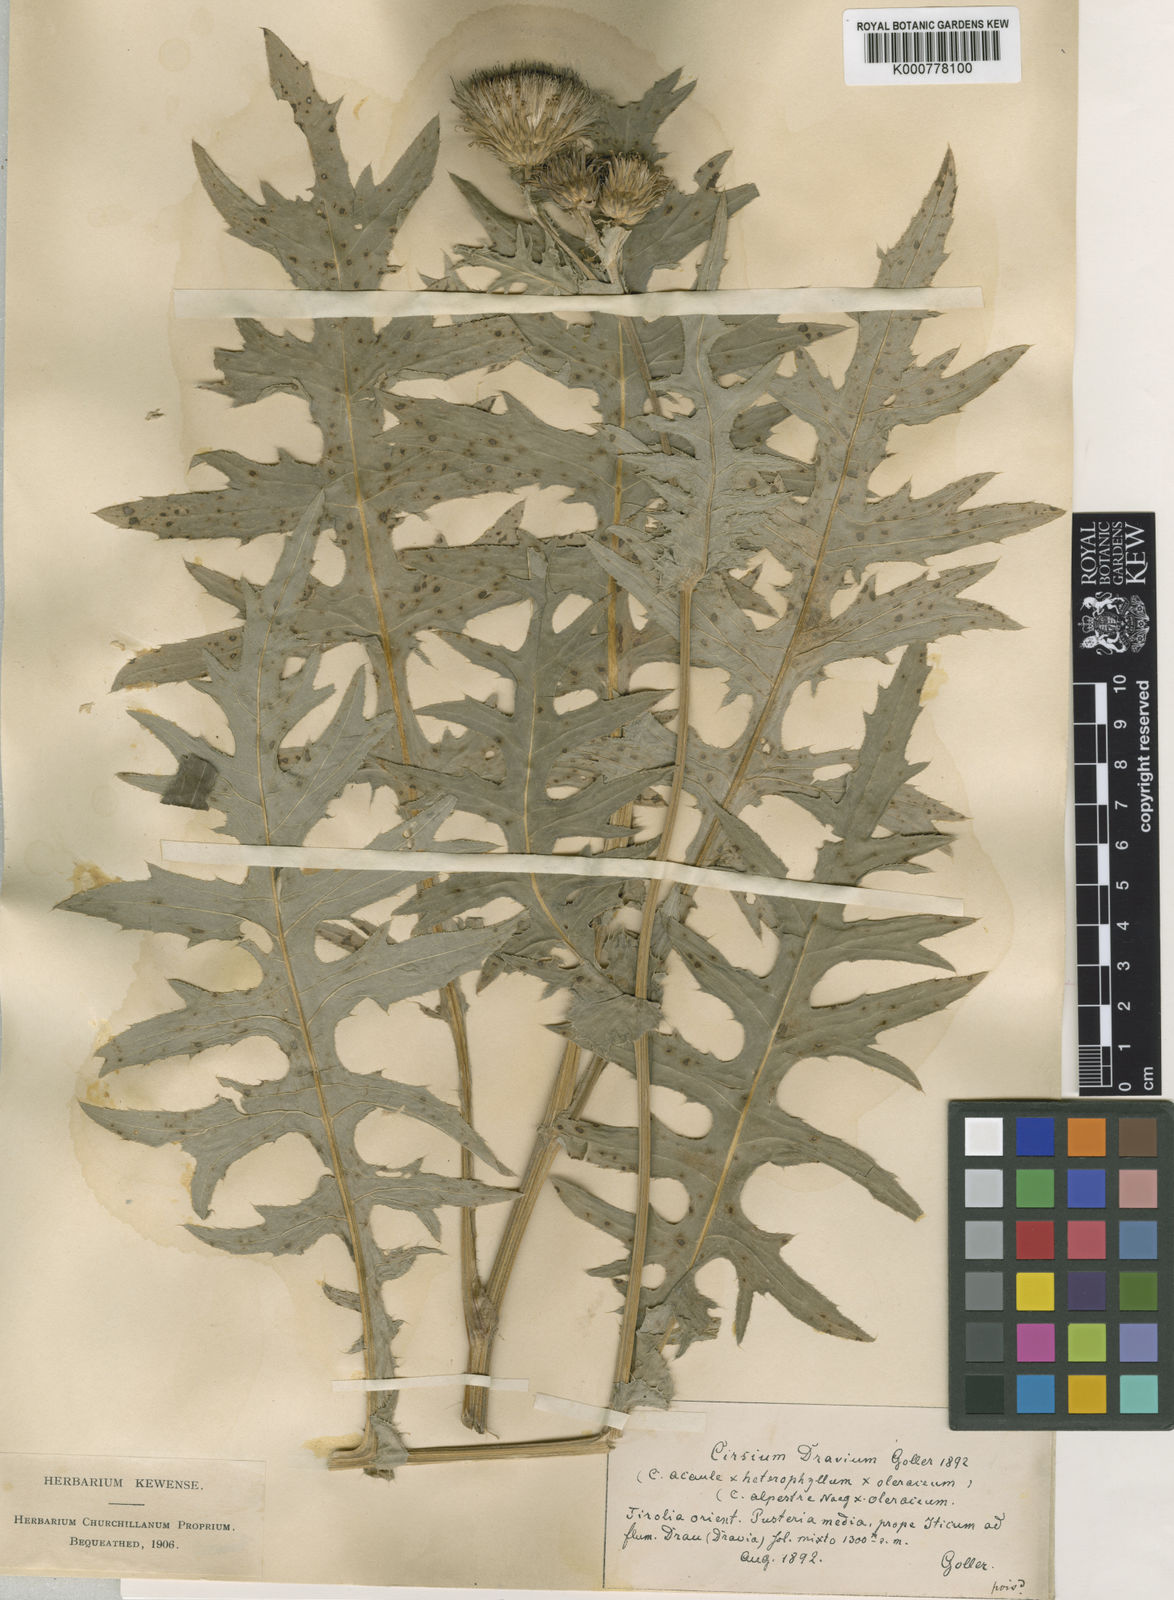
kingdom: Plantae
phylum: Tracheophyta
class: Magnoliopsida
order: Asterales
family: Asteraceae
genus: Cirsium
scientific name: Cirsium
